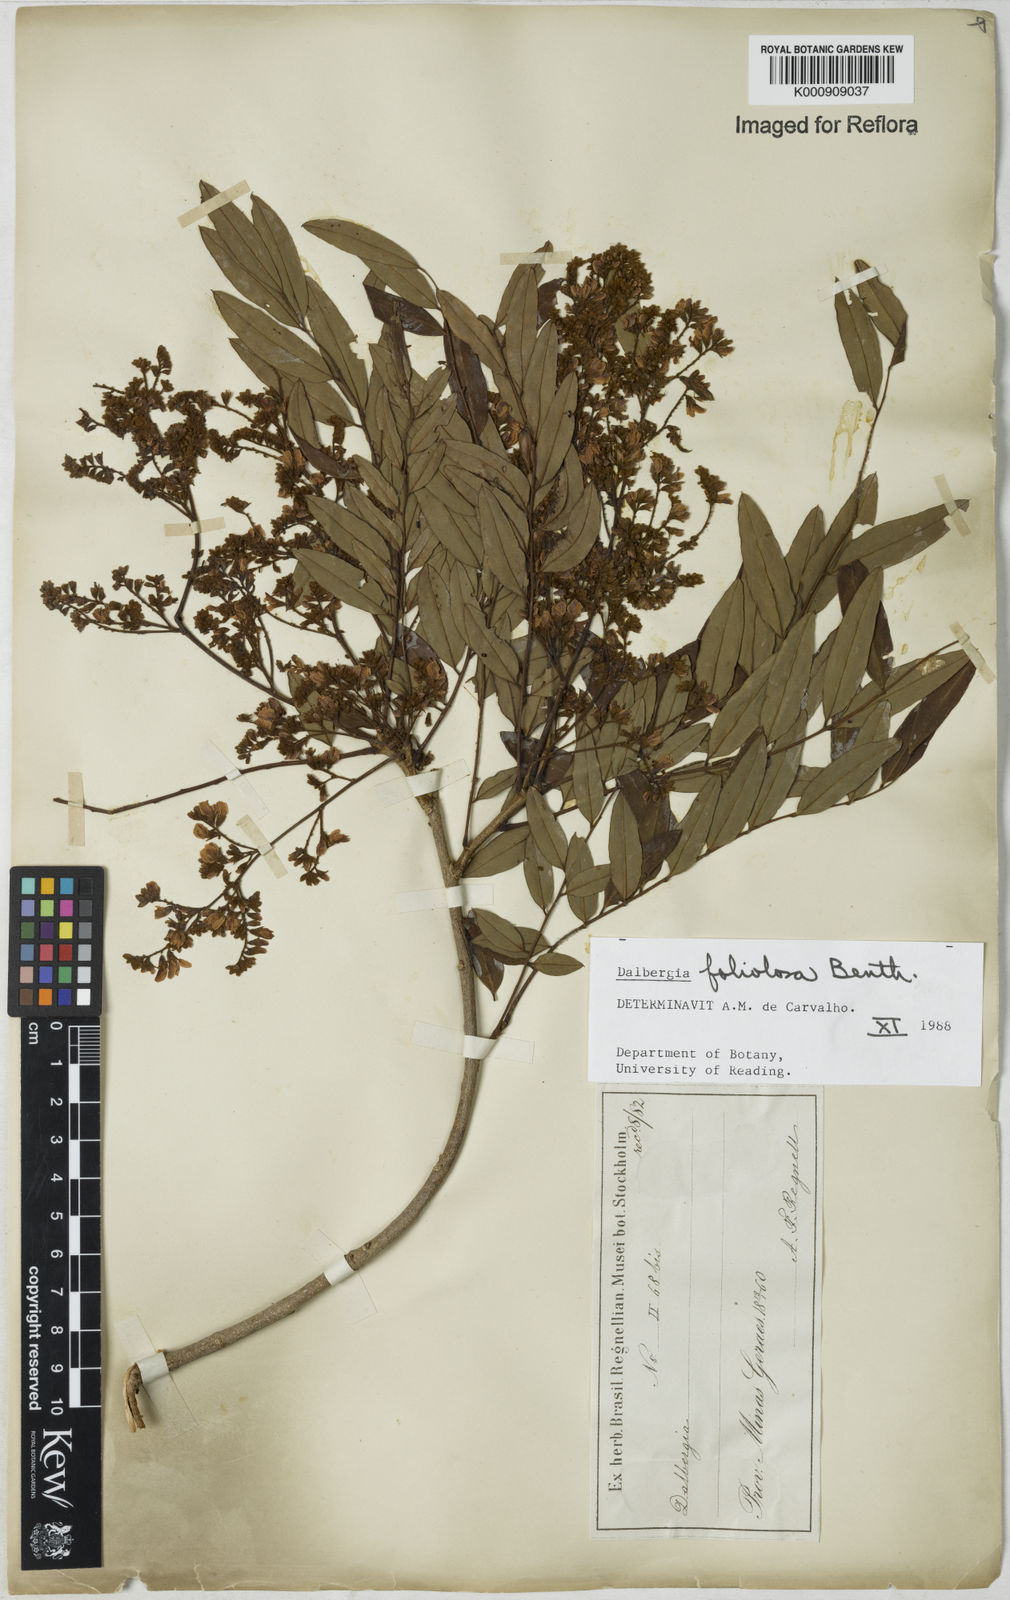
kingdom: Plantae
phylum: Tracheophyta
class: Magnoliopsida
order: Fabales
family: Fabaceae
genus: Dalbergia
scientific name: Dalbergia foliolosa
